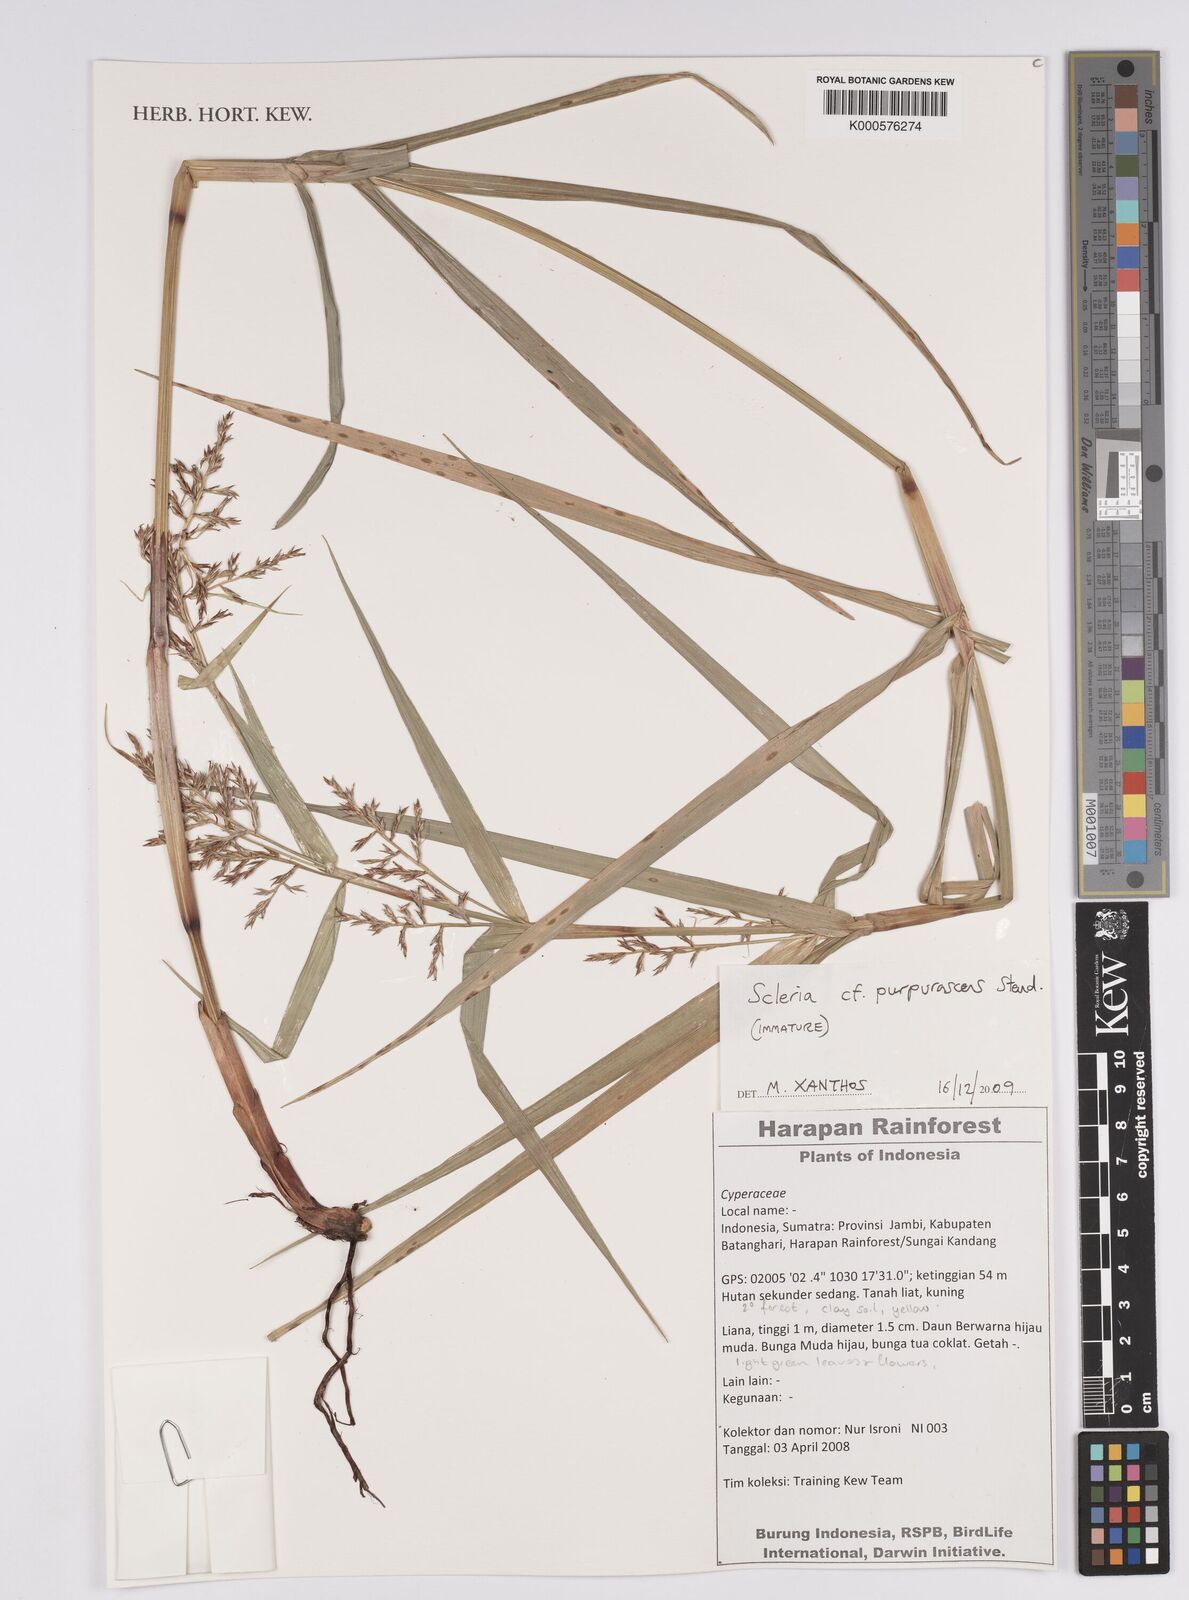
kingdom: Plantae
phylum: Tracheophyta
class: Liliopsida
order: Poales
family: Cyperaceae
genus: Scleria
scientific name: Scleria purpurascens
